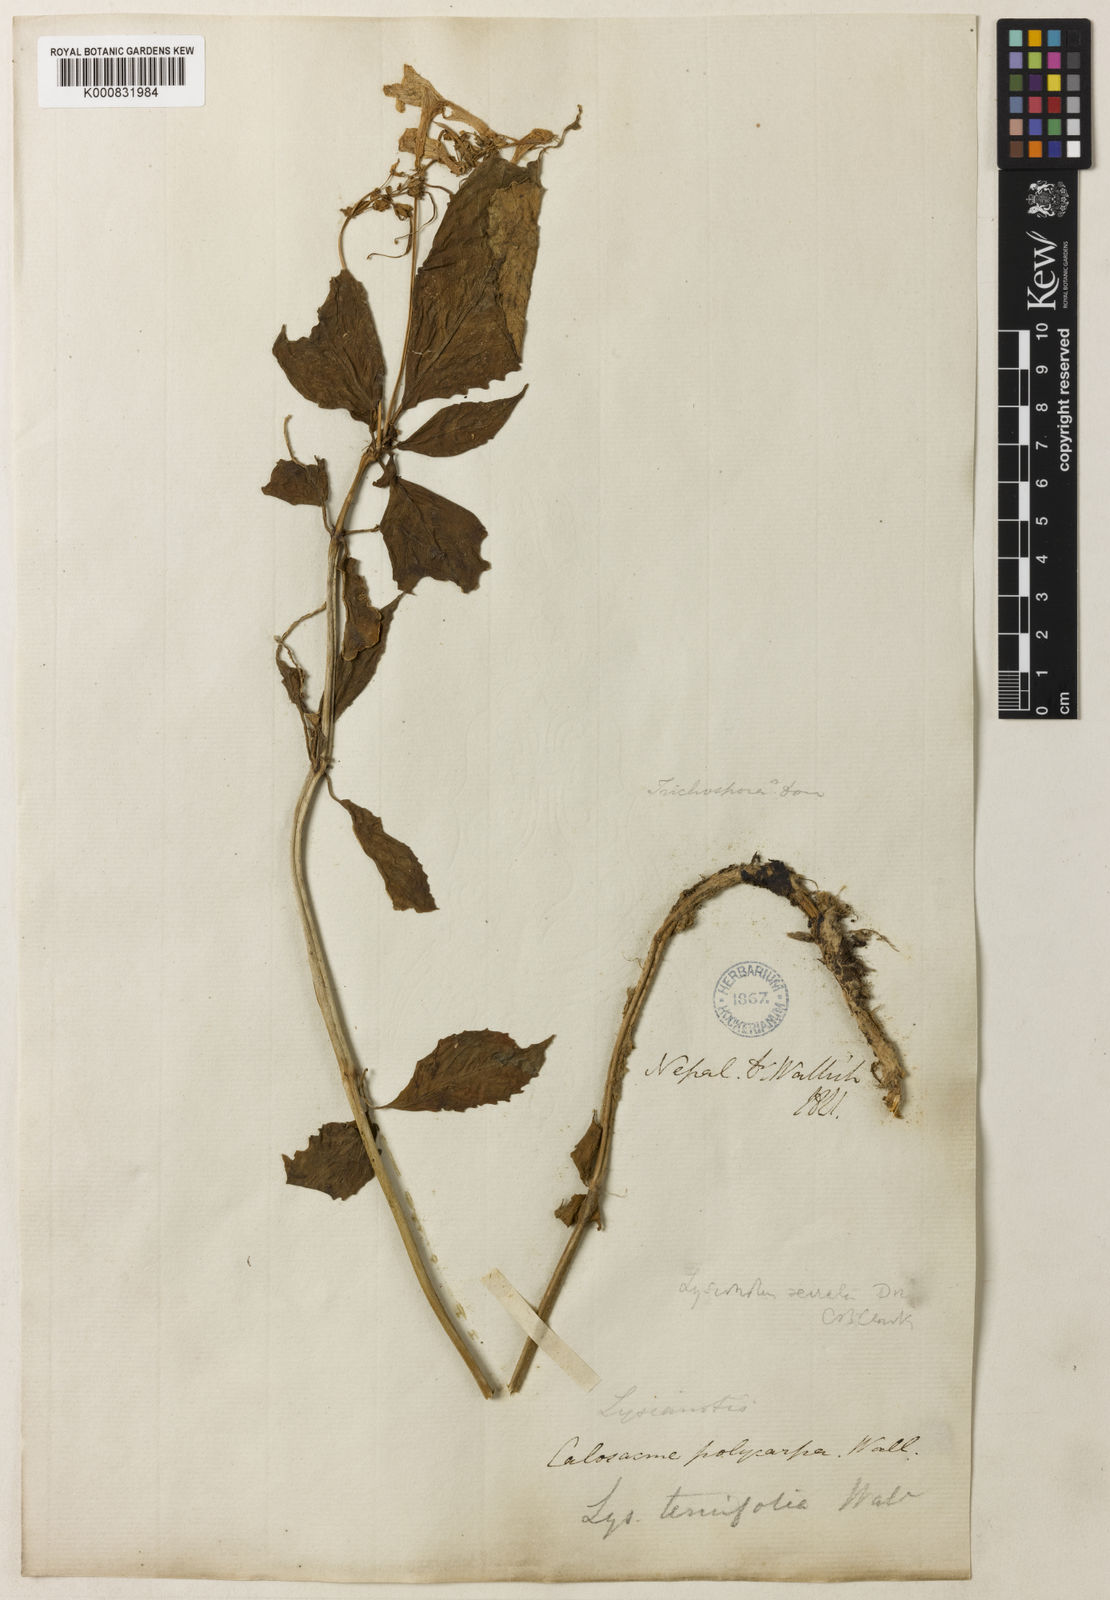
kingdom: Plantae
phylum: Tracheophyta
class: Magnoliopsida
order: Lamiales
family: Gesneriaceae
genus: Lysionotus
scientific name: Lysionotus serratus
